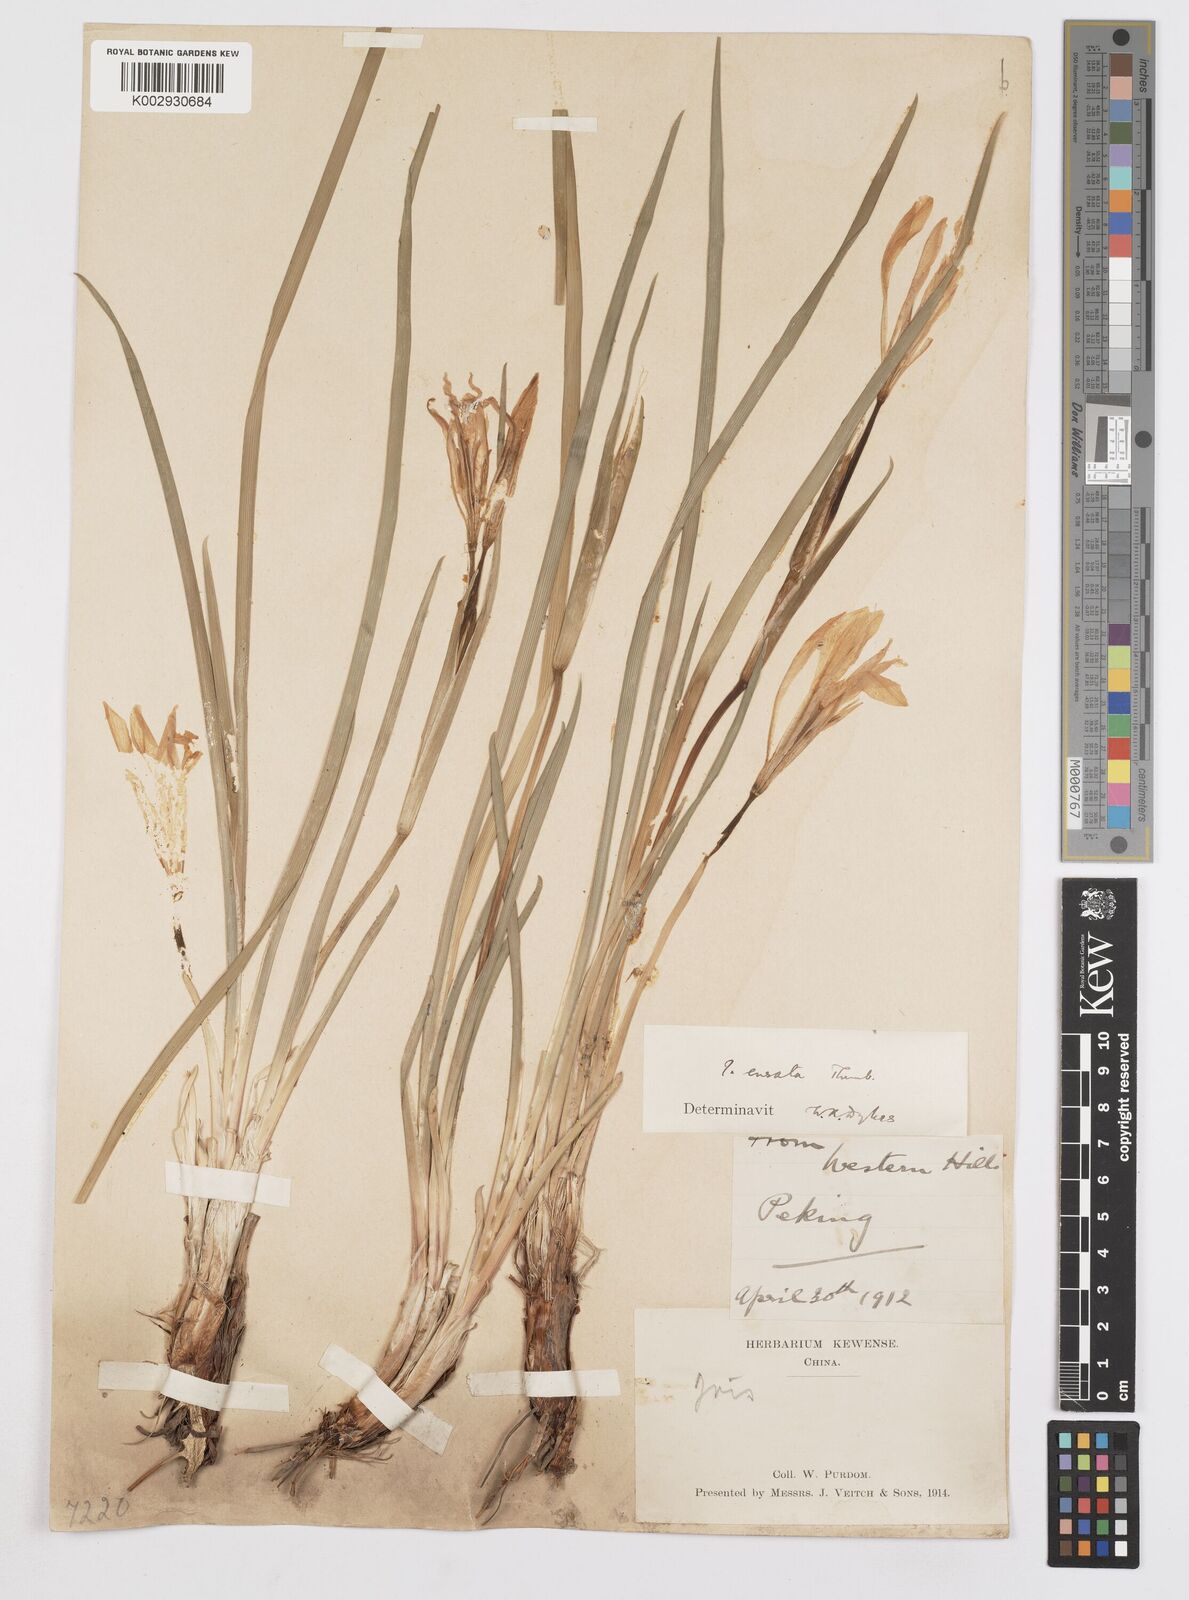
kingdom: Plantae
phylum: Tracheophyta
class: Liliopsida
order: Asparagales
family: Iridaceae
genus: Iris
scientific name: Iris ensata
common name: Beaked iris
